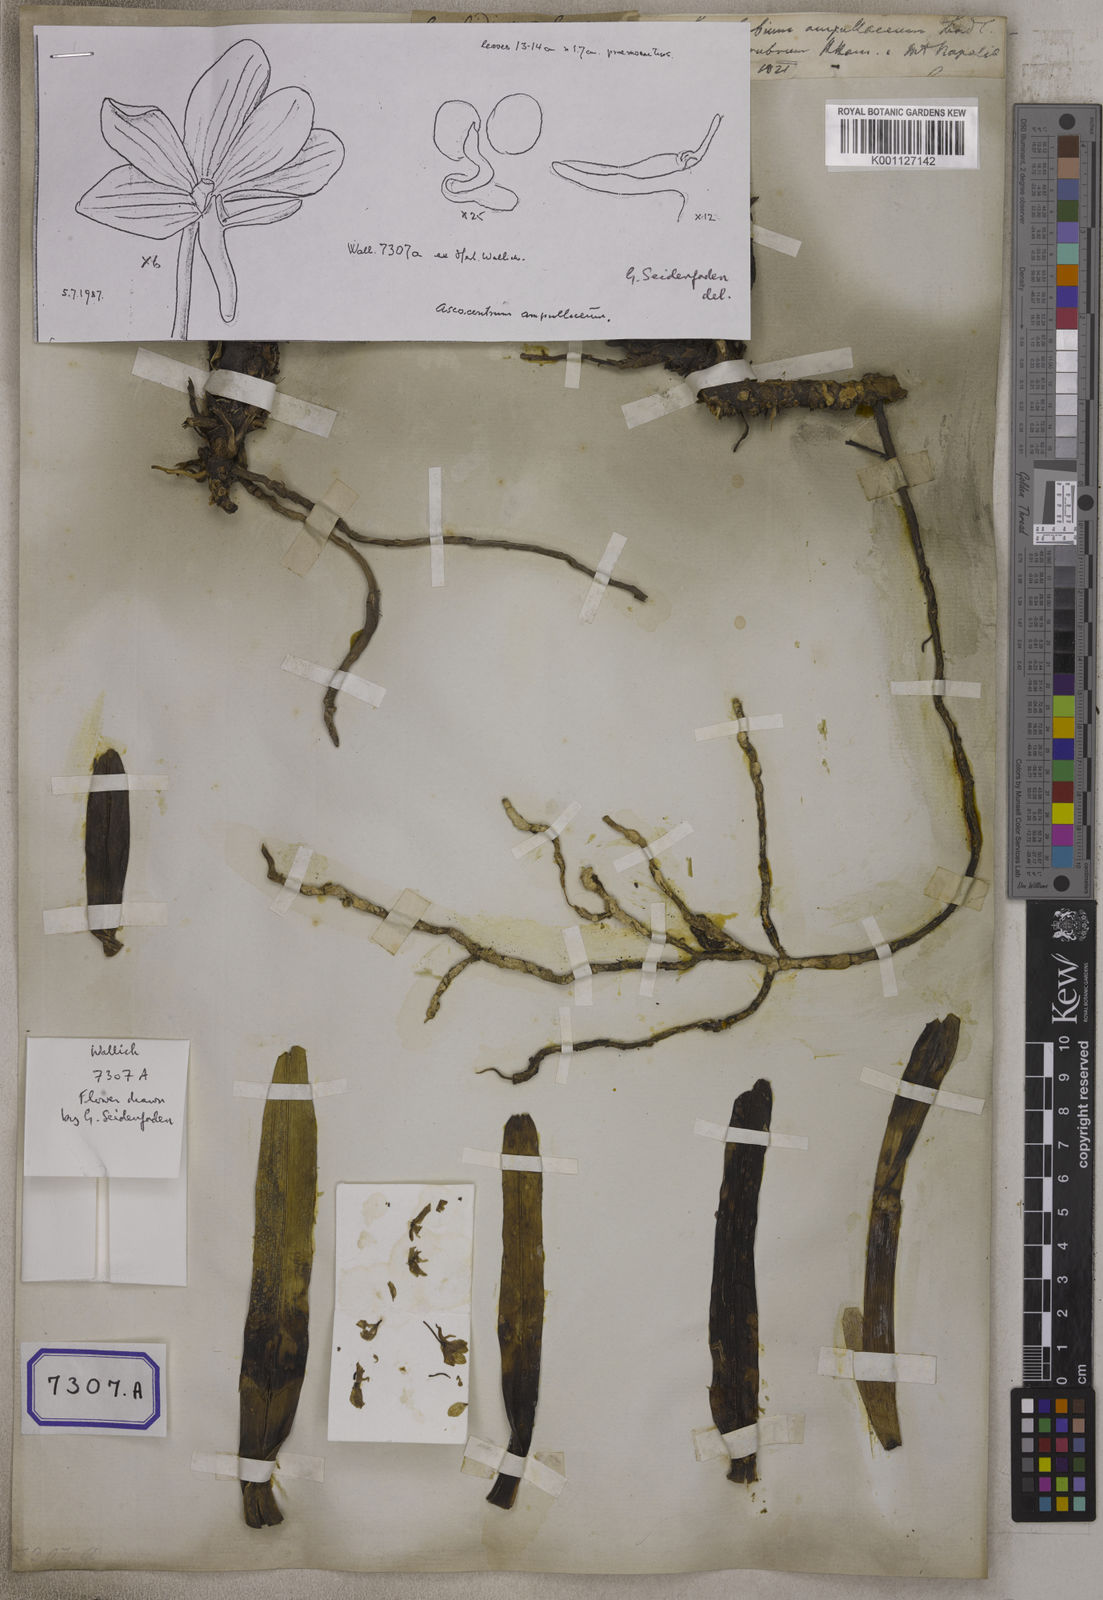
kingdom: Plantae
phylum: Tracheophyta
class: Liliopsida
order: Asparagales
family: Orchidaceae
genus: Vanda
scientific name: Vanda ampullacea
